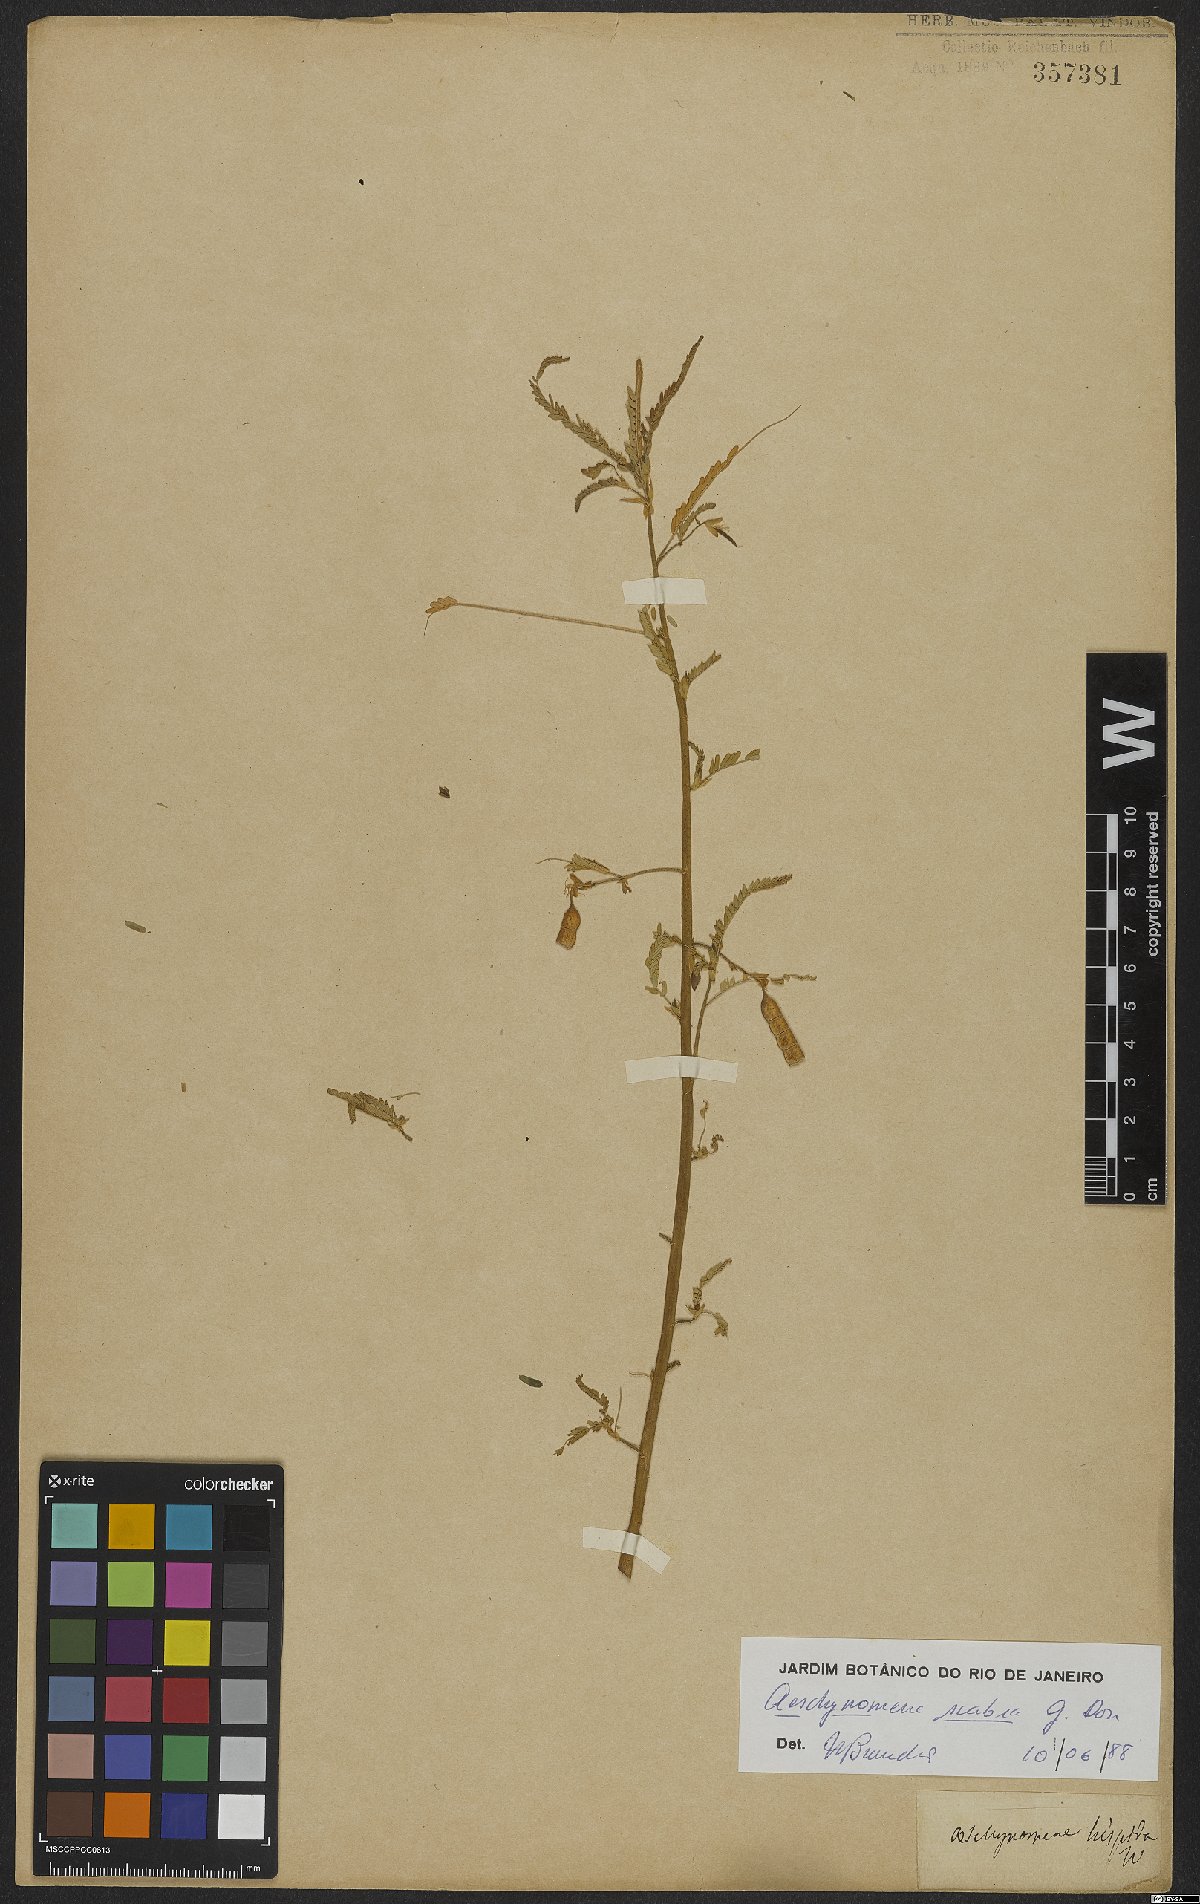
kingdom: Plantae
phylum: Tracheophyta
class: Magnoliopsida
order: Fabales
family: Fabaceae
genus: Aeschynomene
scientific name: Aeschynomene scabra
